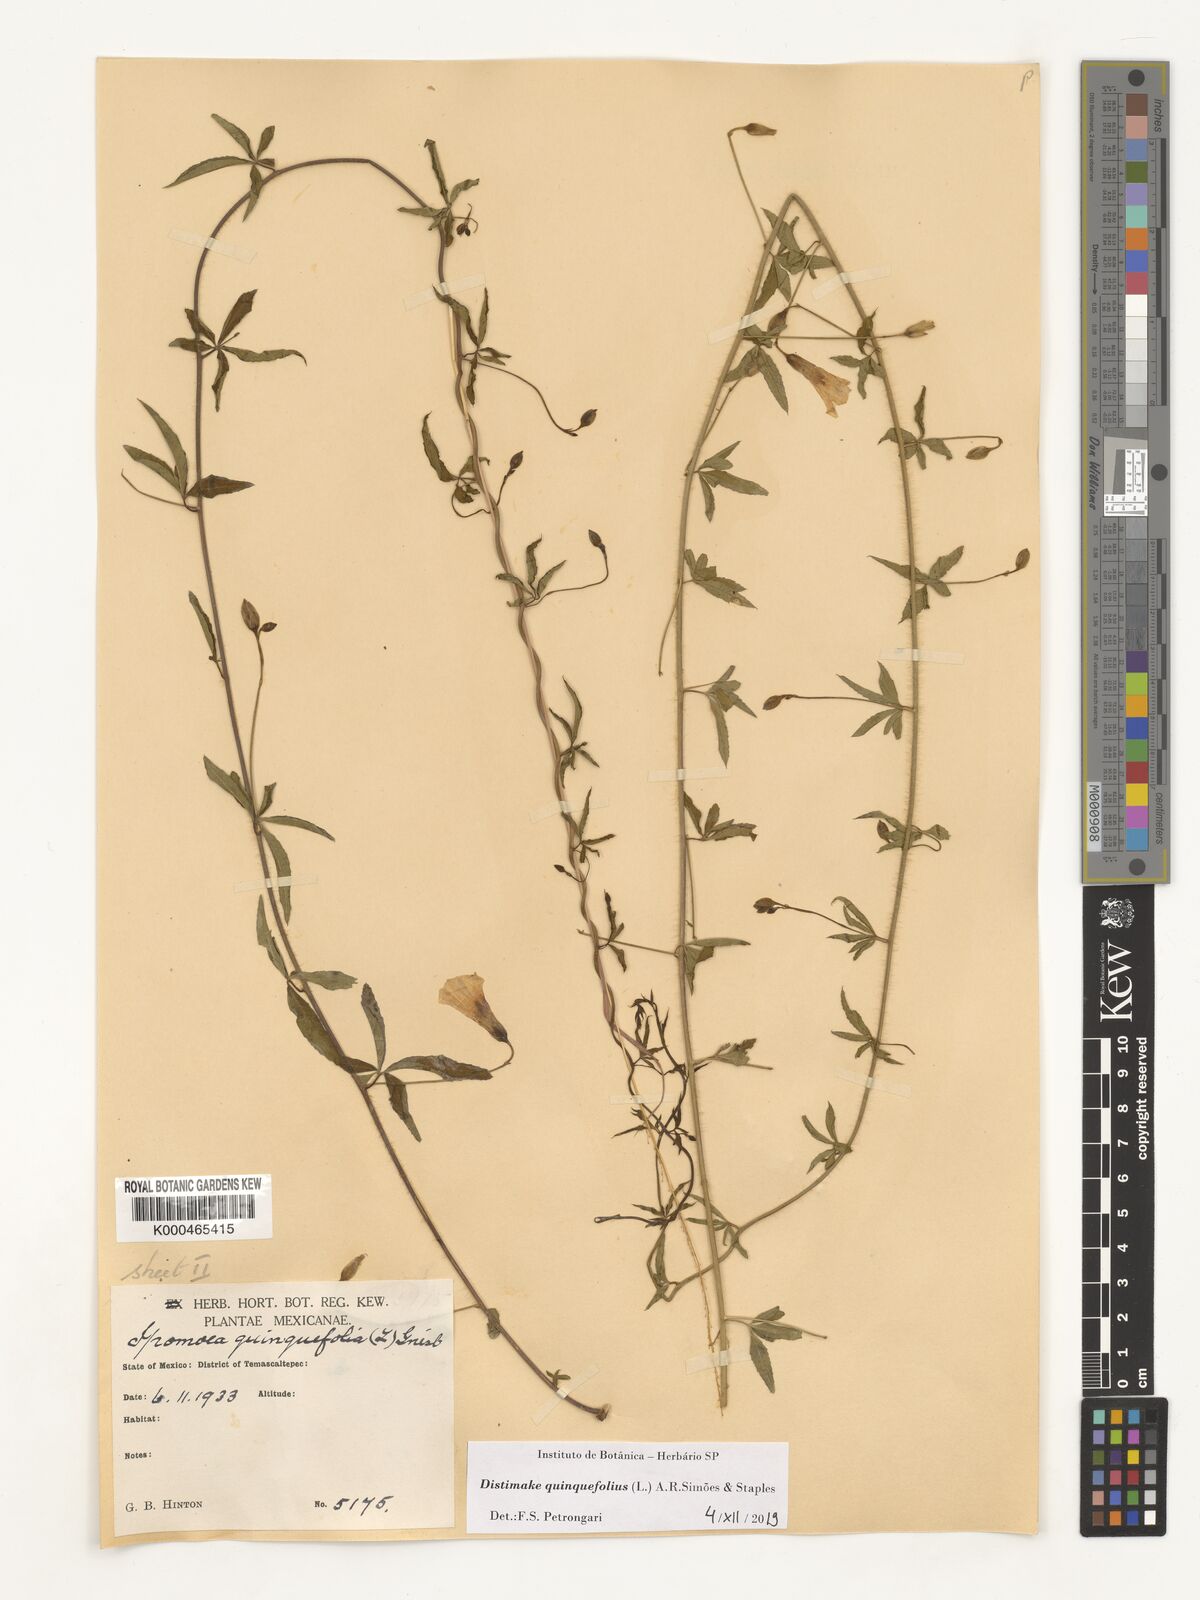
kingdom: Plantae
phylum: Tracheophyta
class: Magnoliopsida
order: Solanales
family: Convolvulaceae
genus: Distimake
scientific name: Distimake quinquefolius
